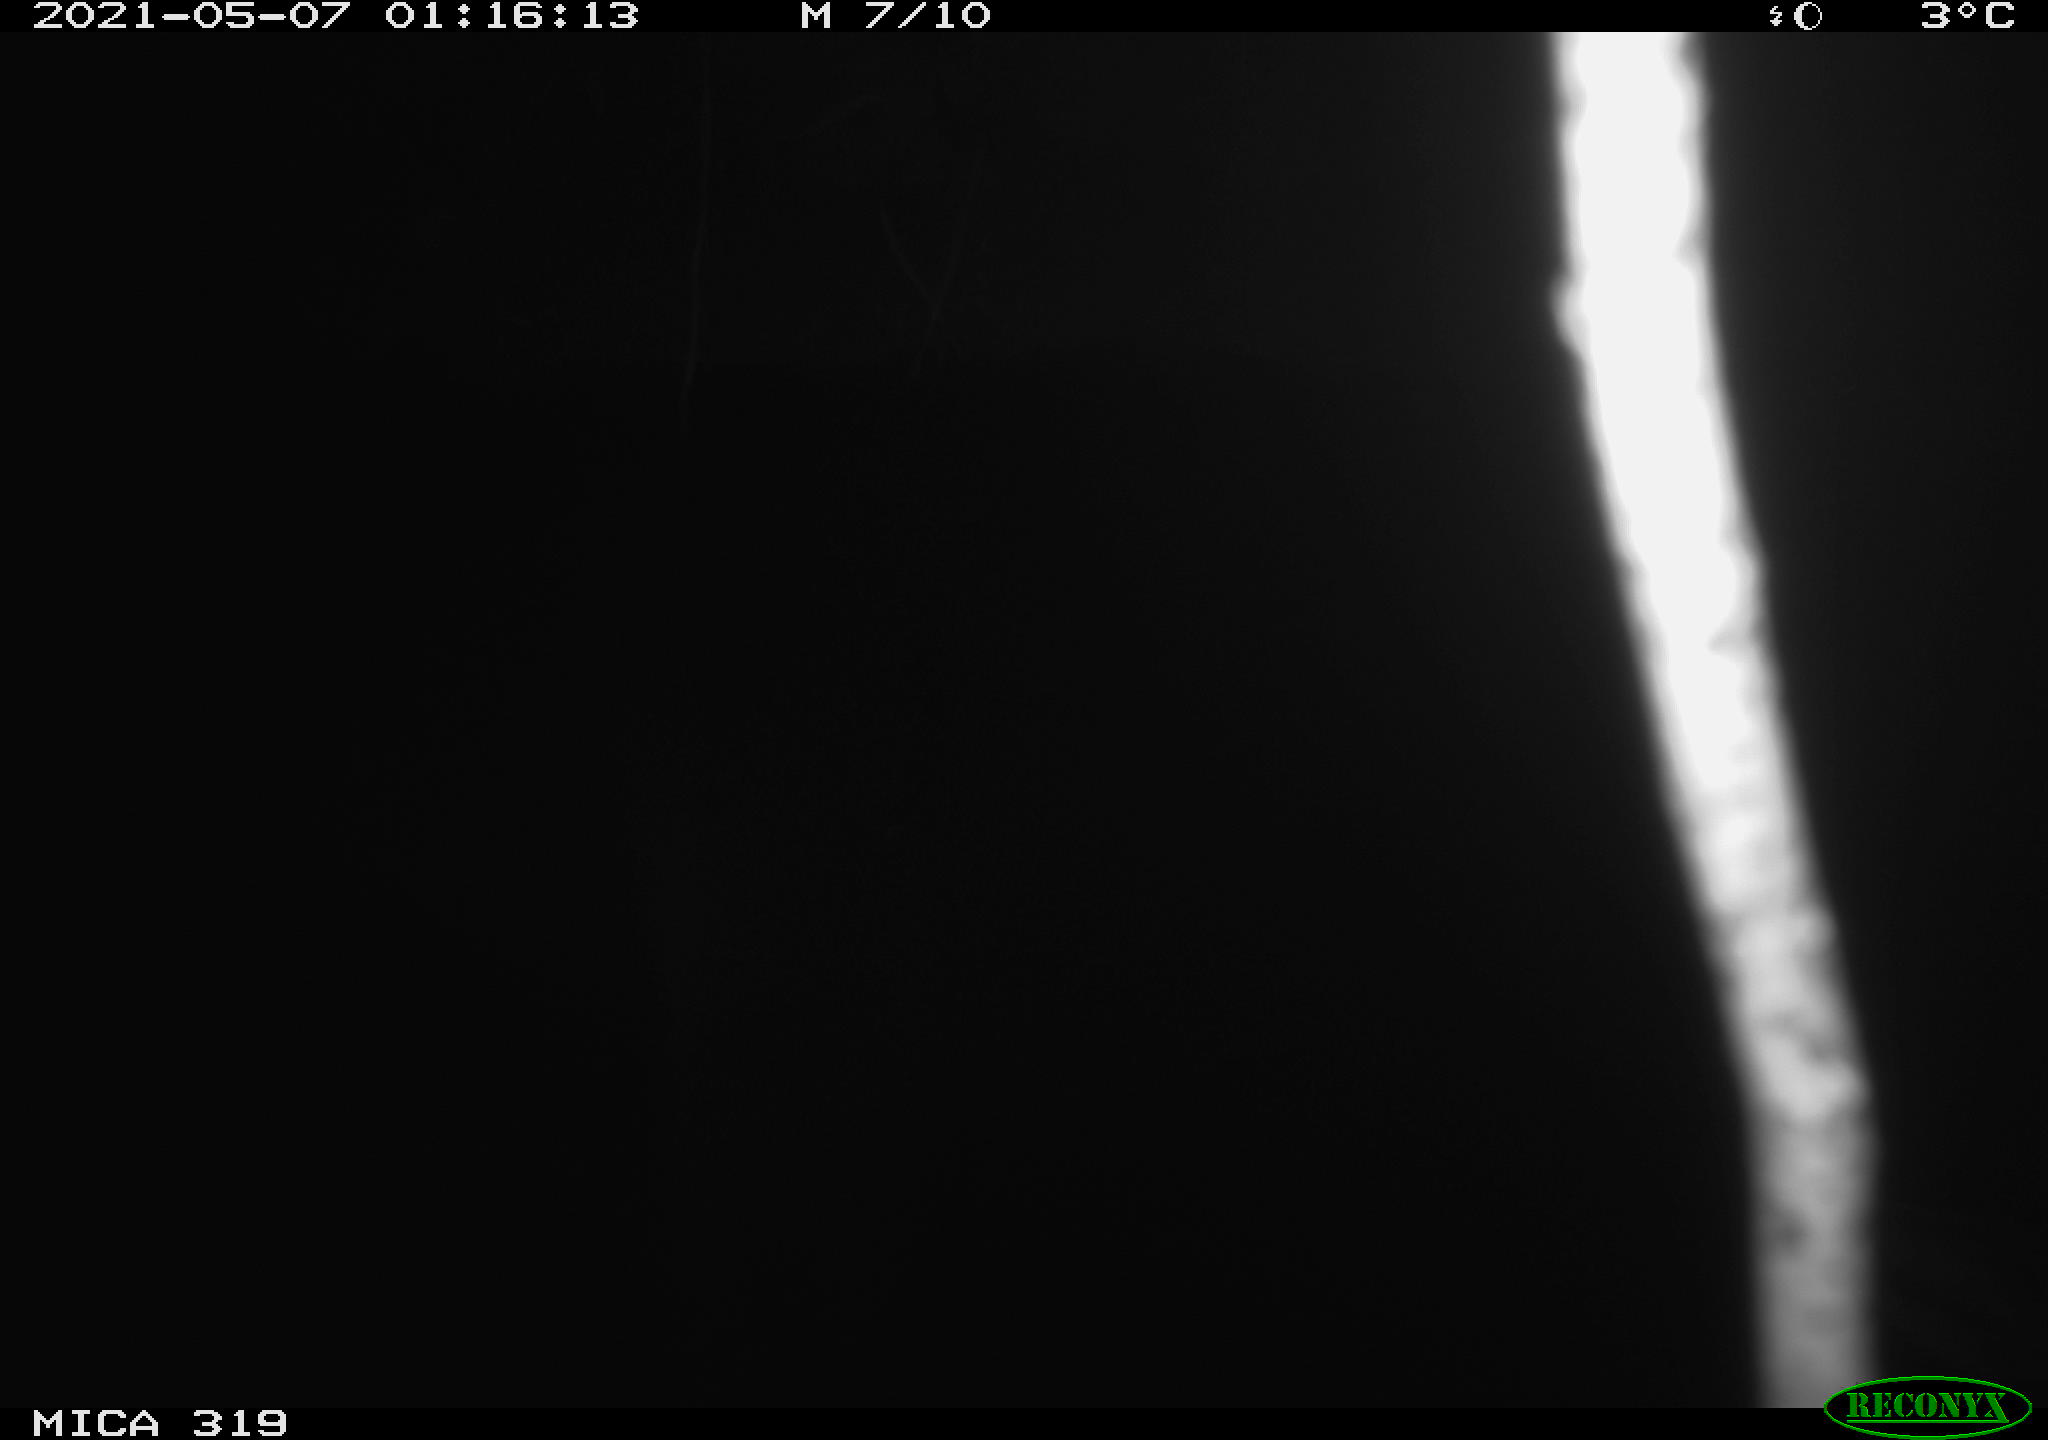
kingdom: Animalia
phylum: Chordata
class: Aves
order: Anseriformes
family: Anatidae
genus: Anas
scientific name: Anas platyrhynchos
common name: Mallard
